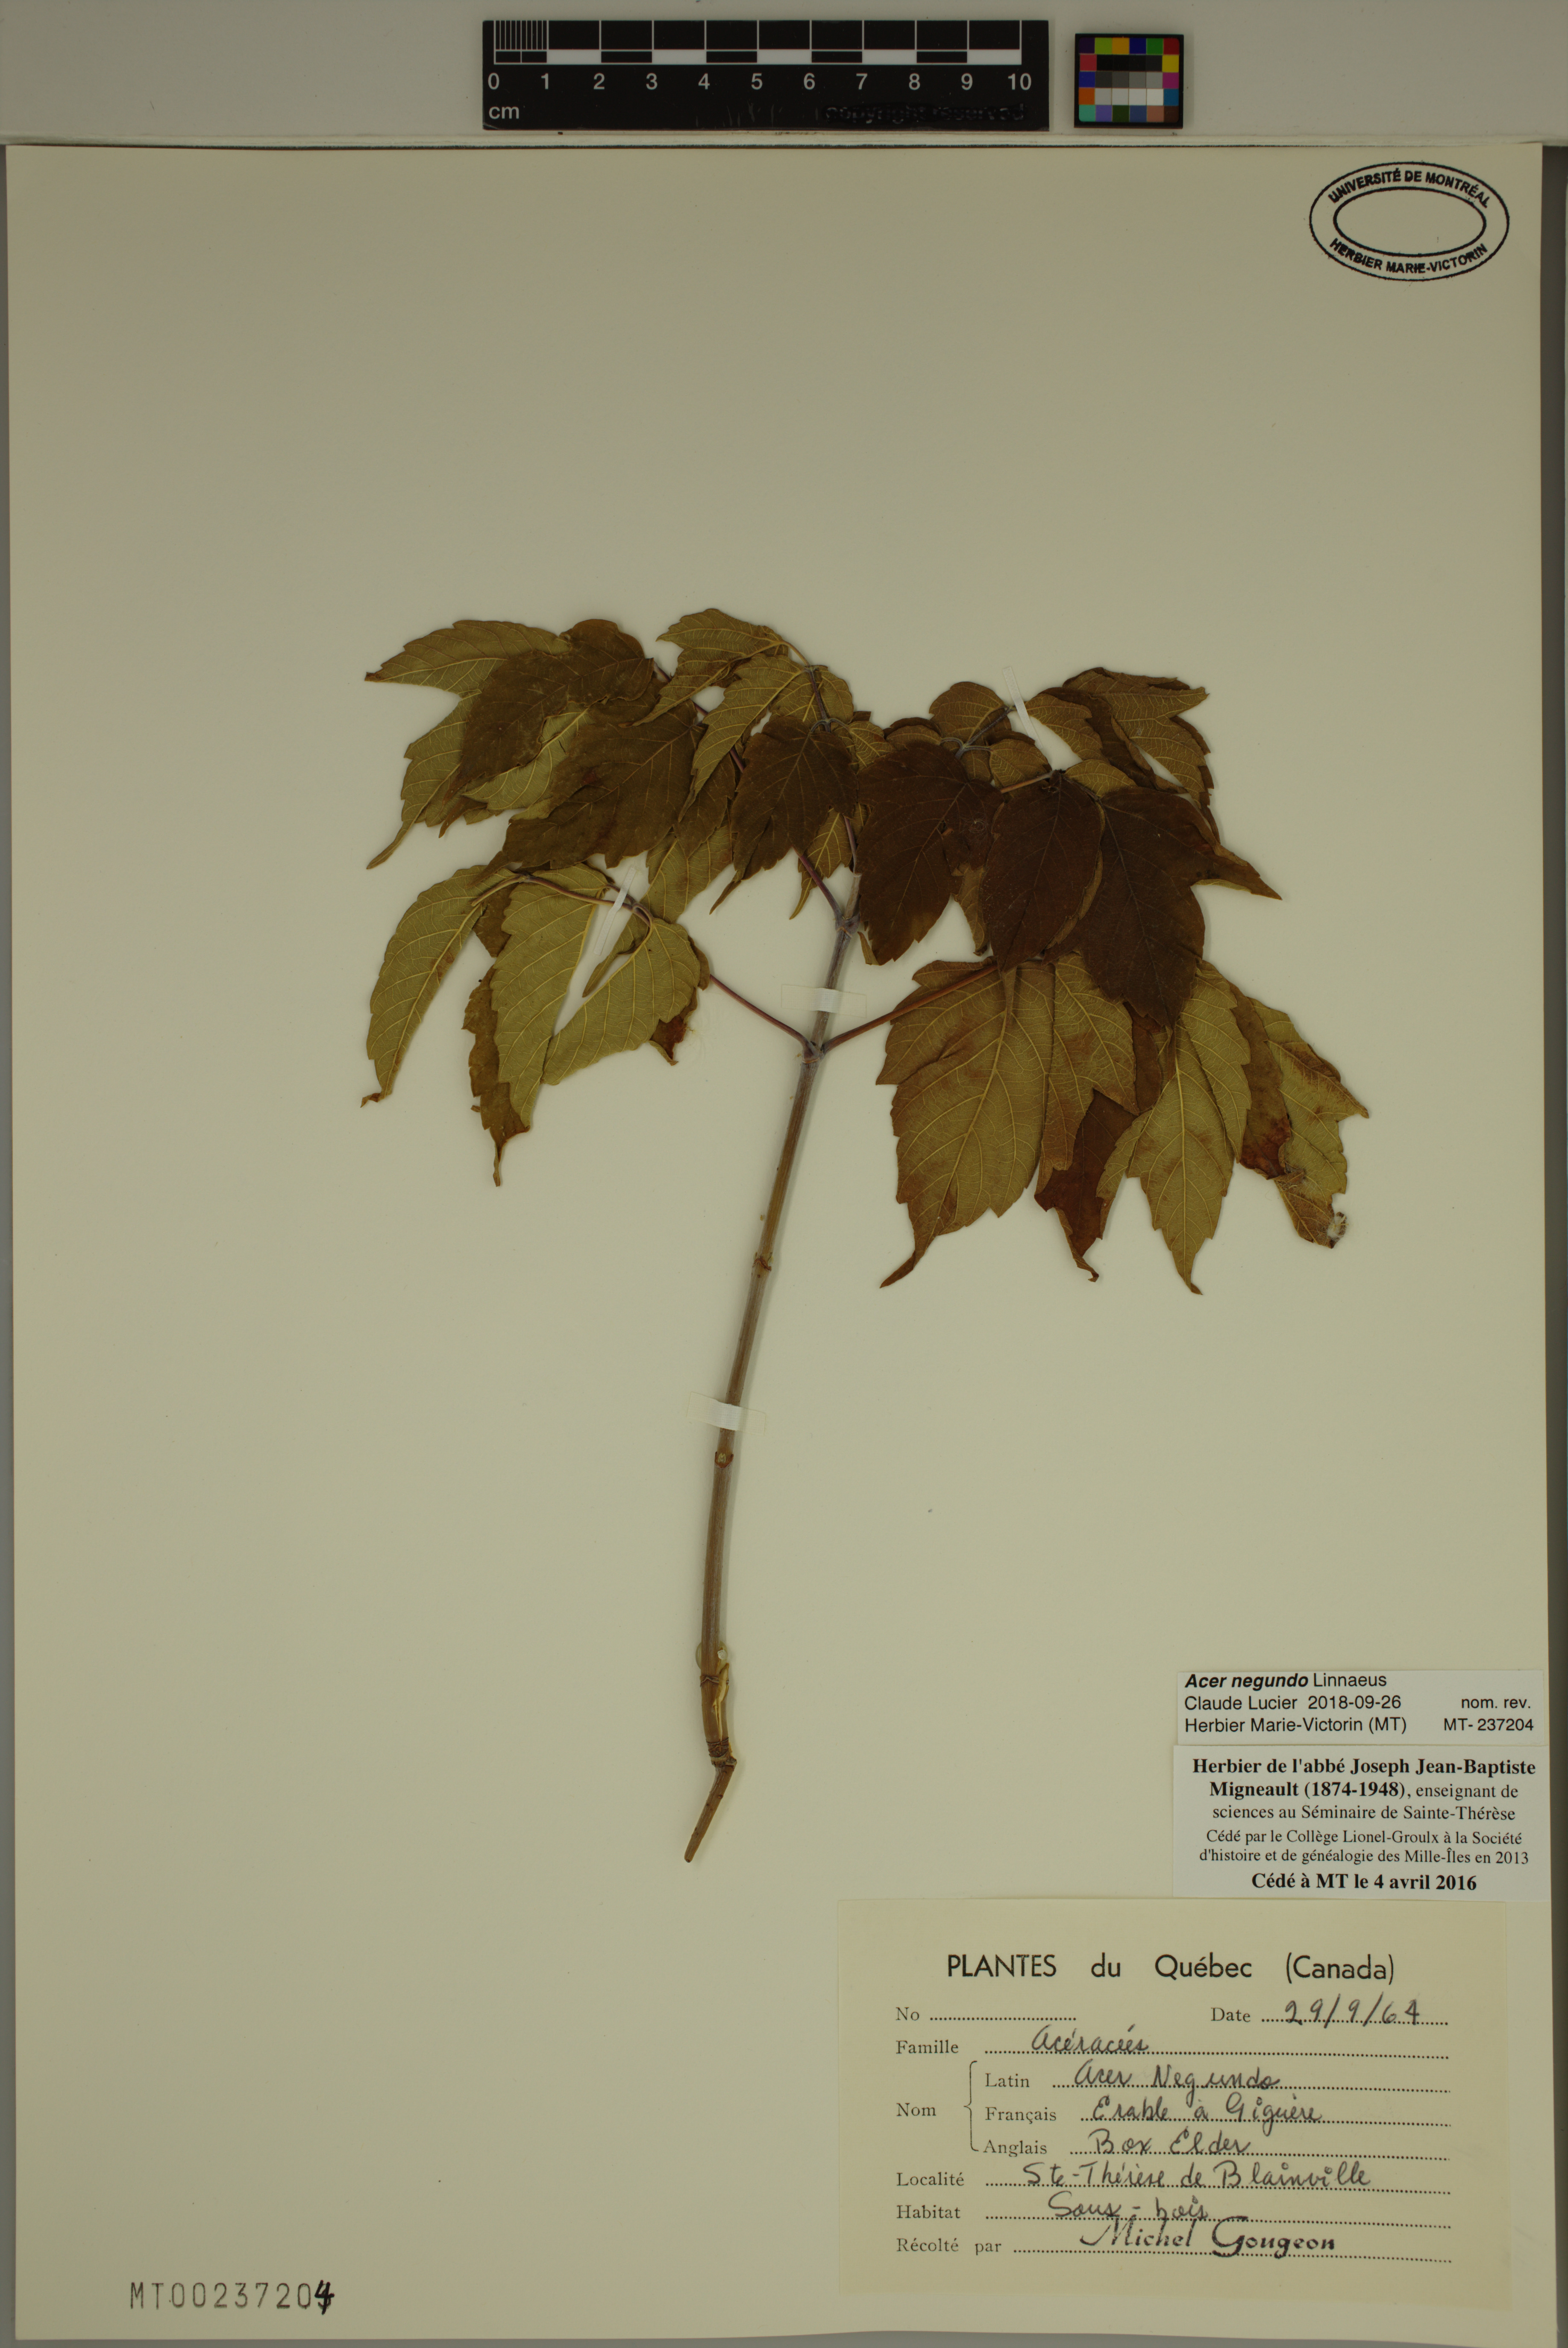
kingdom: Plantae
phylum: Tracheophyta
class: Magnoliopsida
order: Sapindales
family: Sapindaceae
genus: Acer
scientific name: Acer negundo
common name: Ashleaf maple
